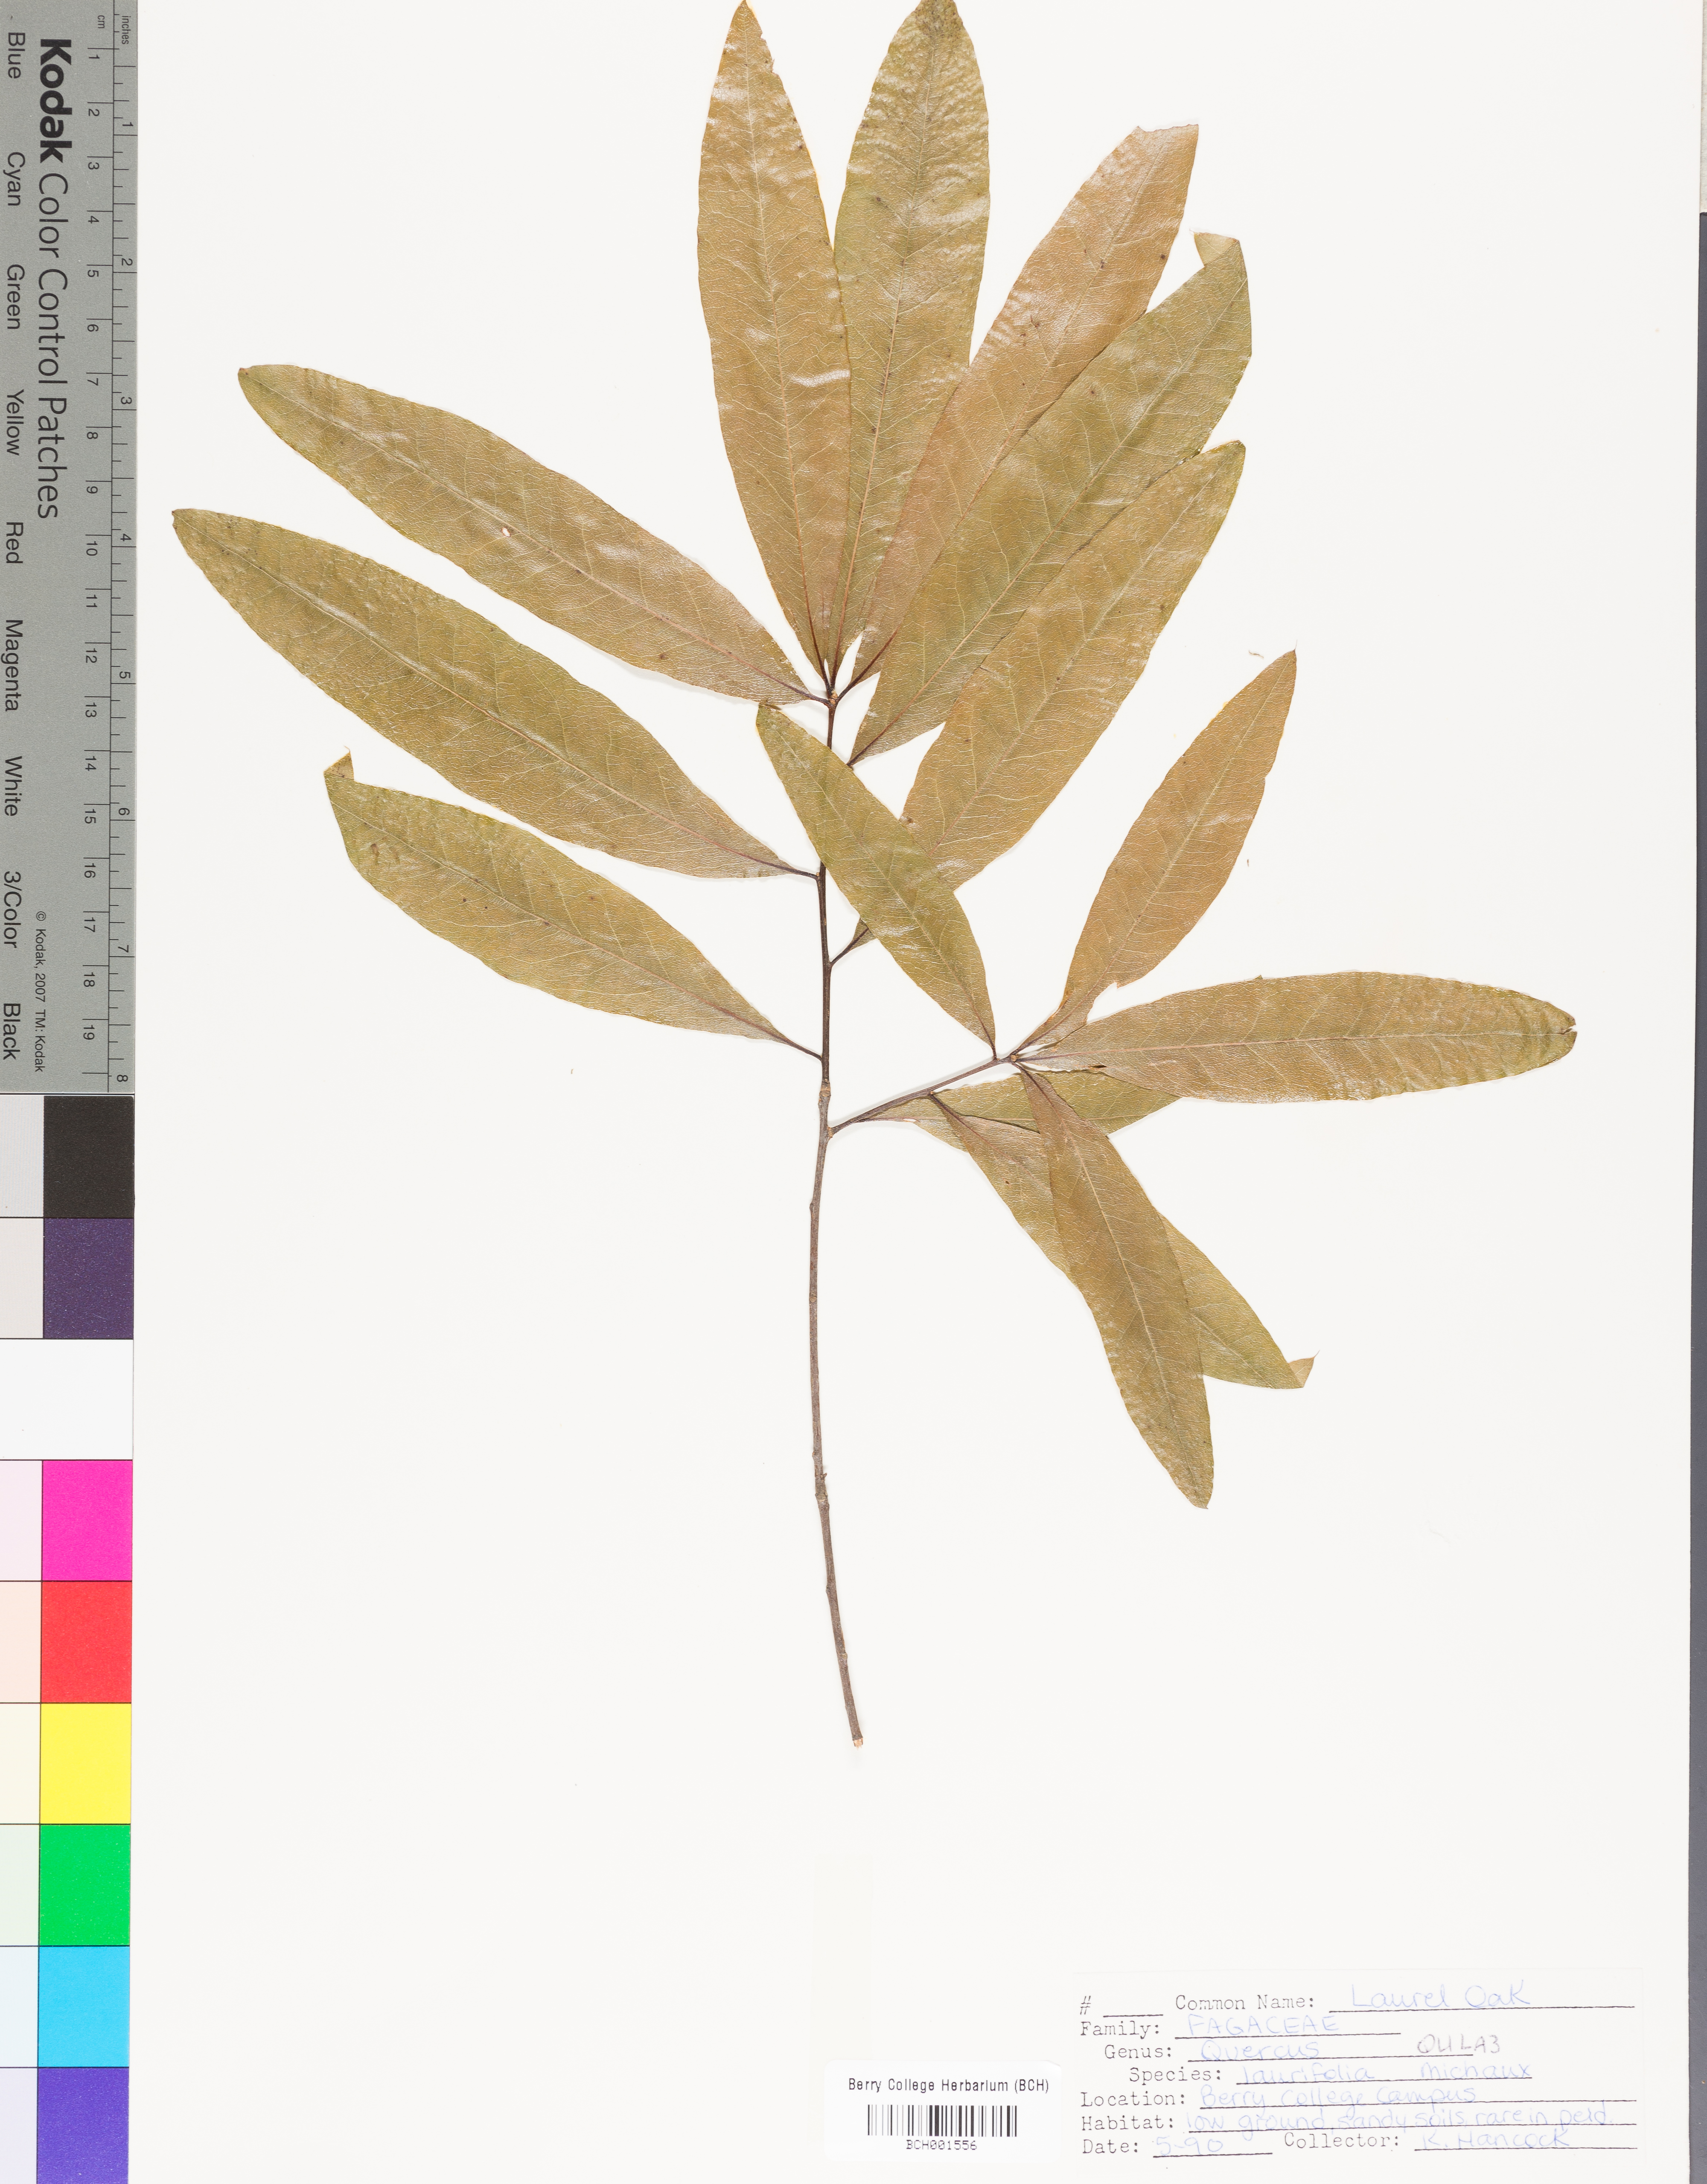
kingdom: Plantae
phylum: Tracheophyta
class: Magnoliopsida
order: Fagales
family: Fagaceae
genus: Quercus
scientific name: Quercus laurifolia
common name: Swamp laurel oak
